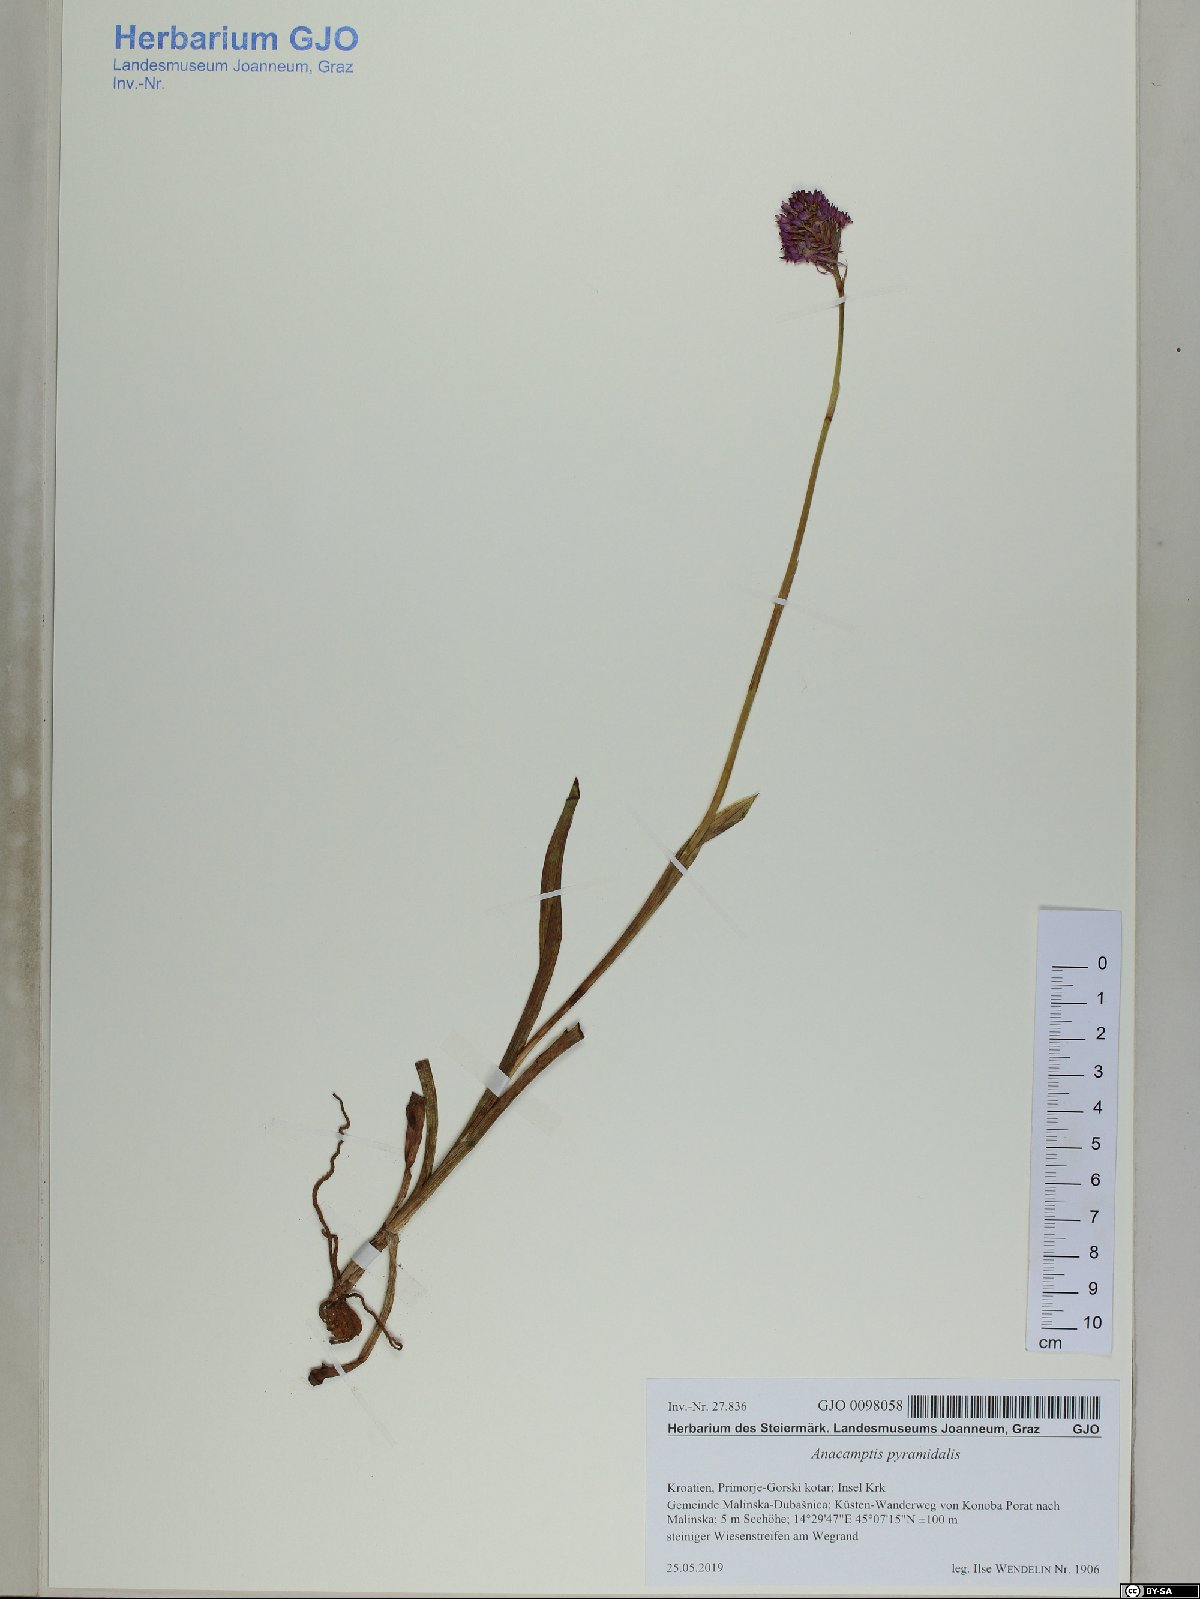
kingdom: Plantae
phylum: Tracheophyta
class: Liliopsida
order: Asparagales
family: Orchidaceae
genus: Anacamptis
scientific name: Anacamptis pyramidalis
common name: Pyramidal orchid
